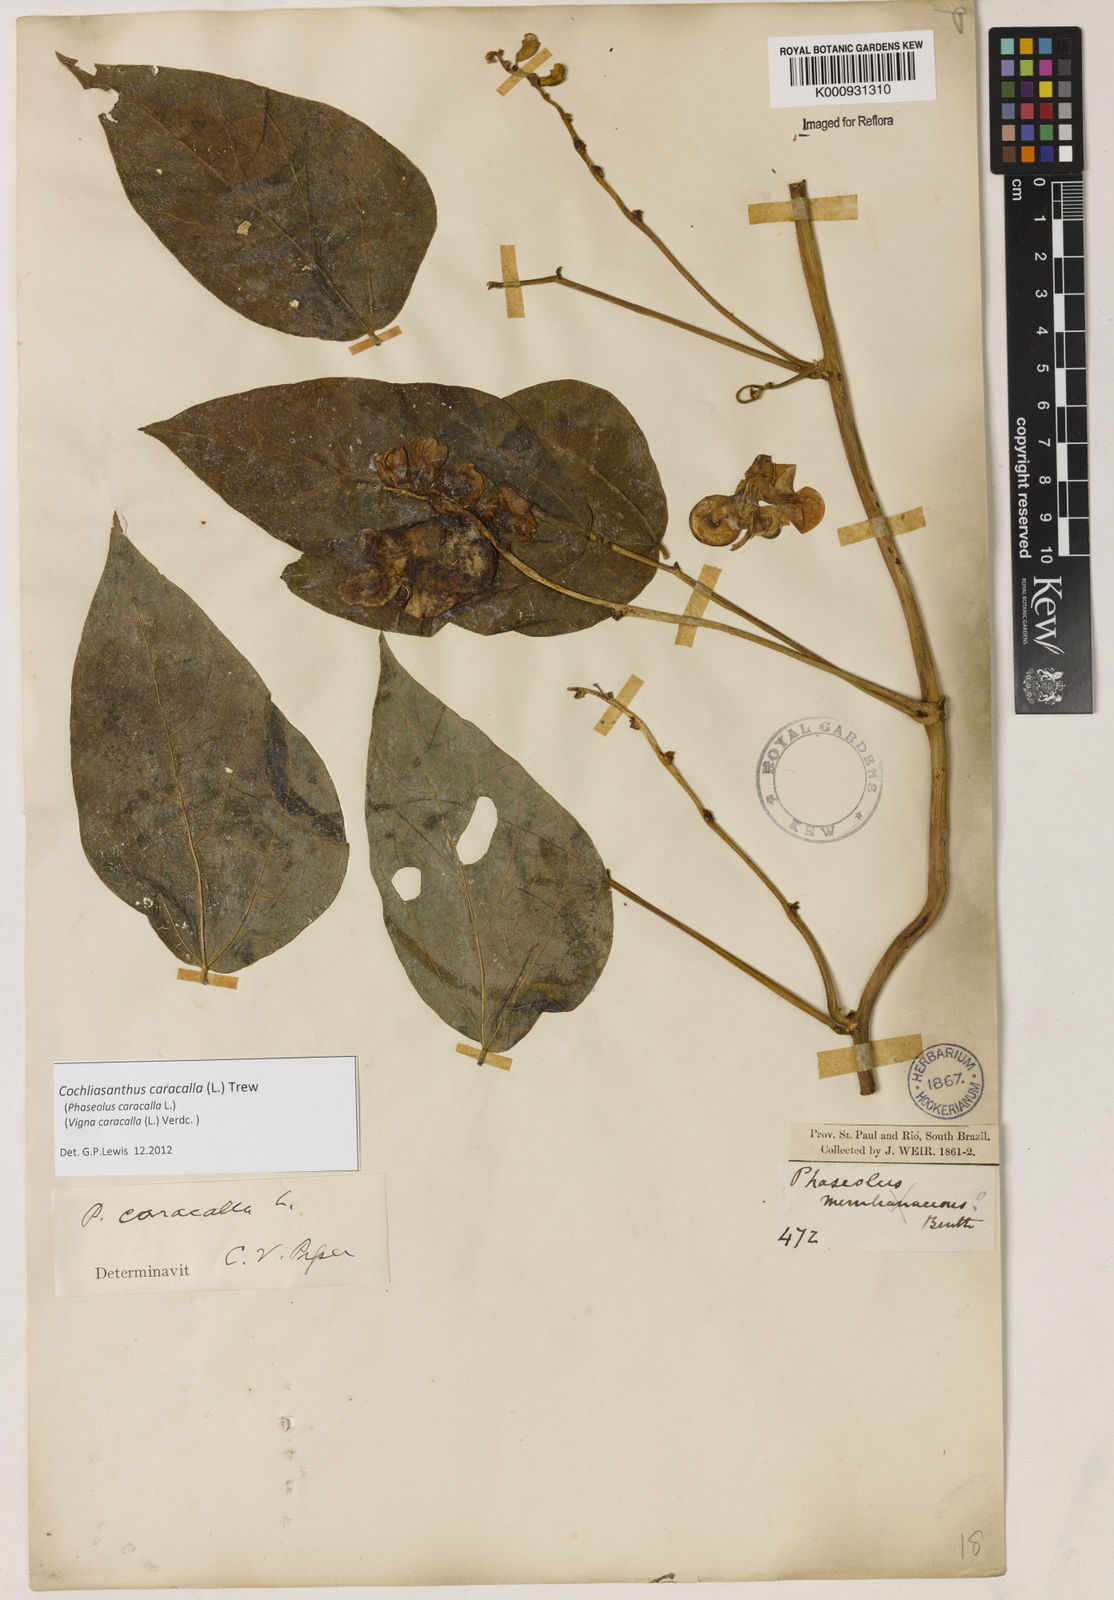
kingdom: Plantae
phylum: Tracheophyta
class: Magnoliopsida
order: Fabales
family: Fabaceae
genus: Cochliasanthus
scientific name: Cochliasanthus caracalla
